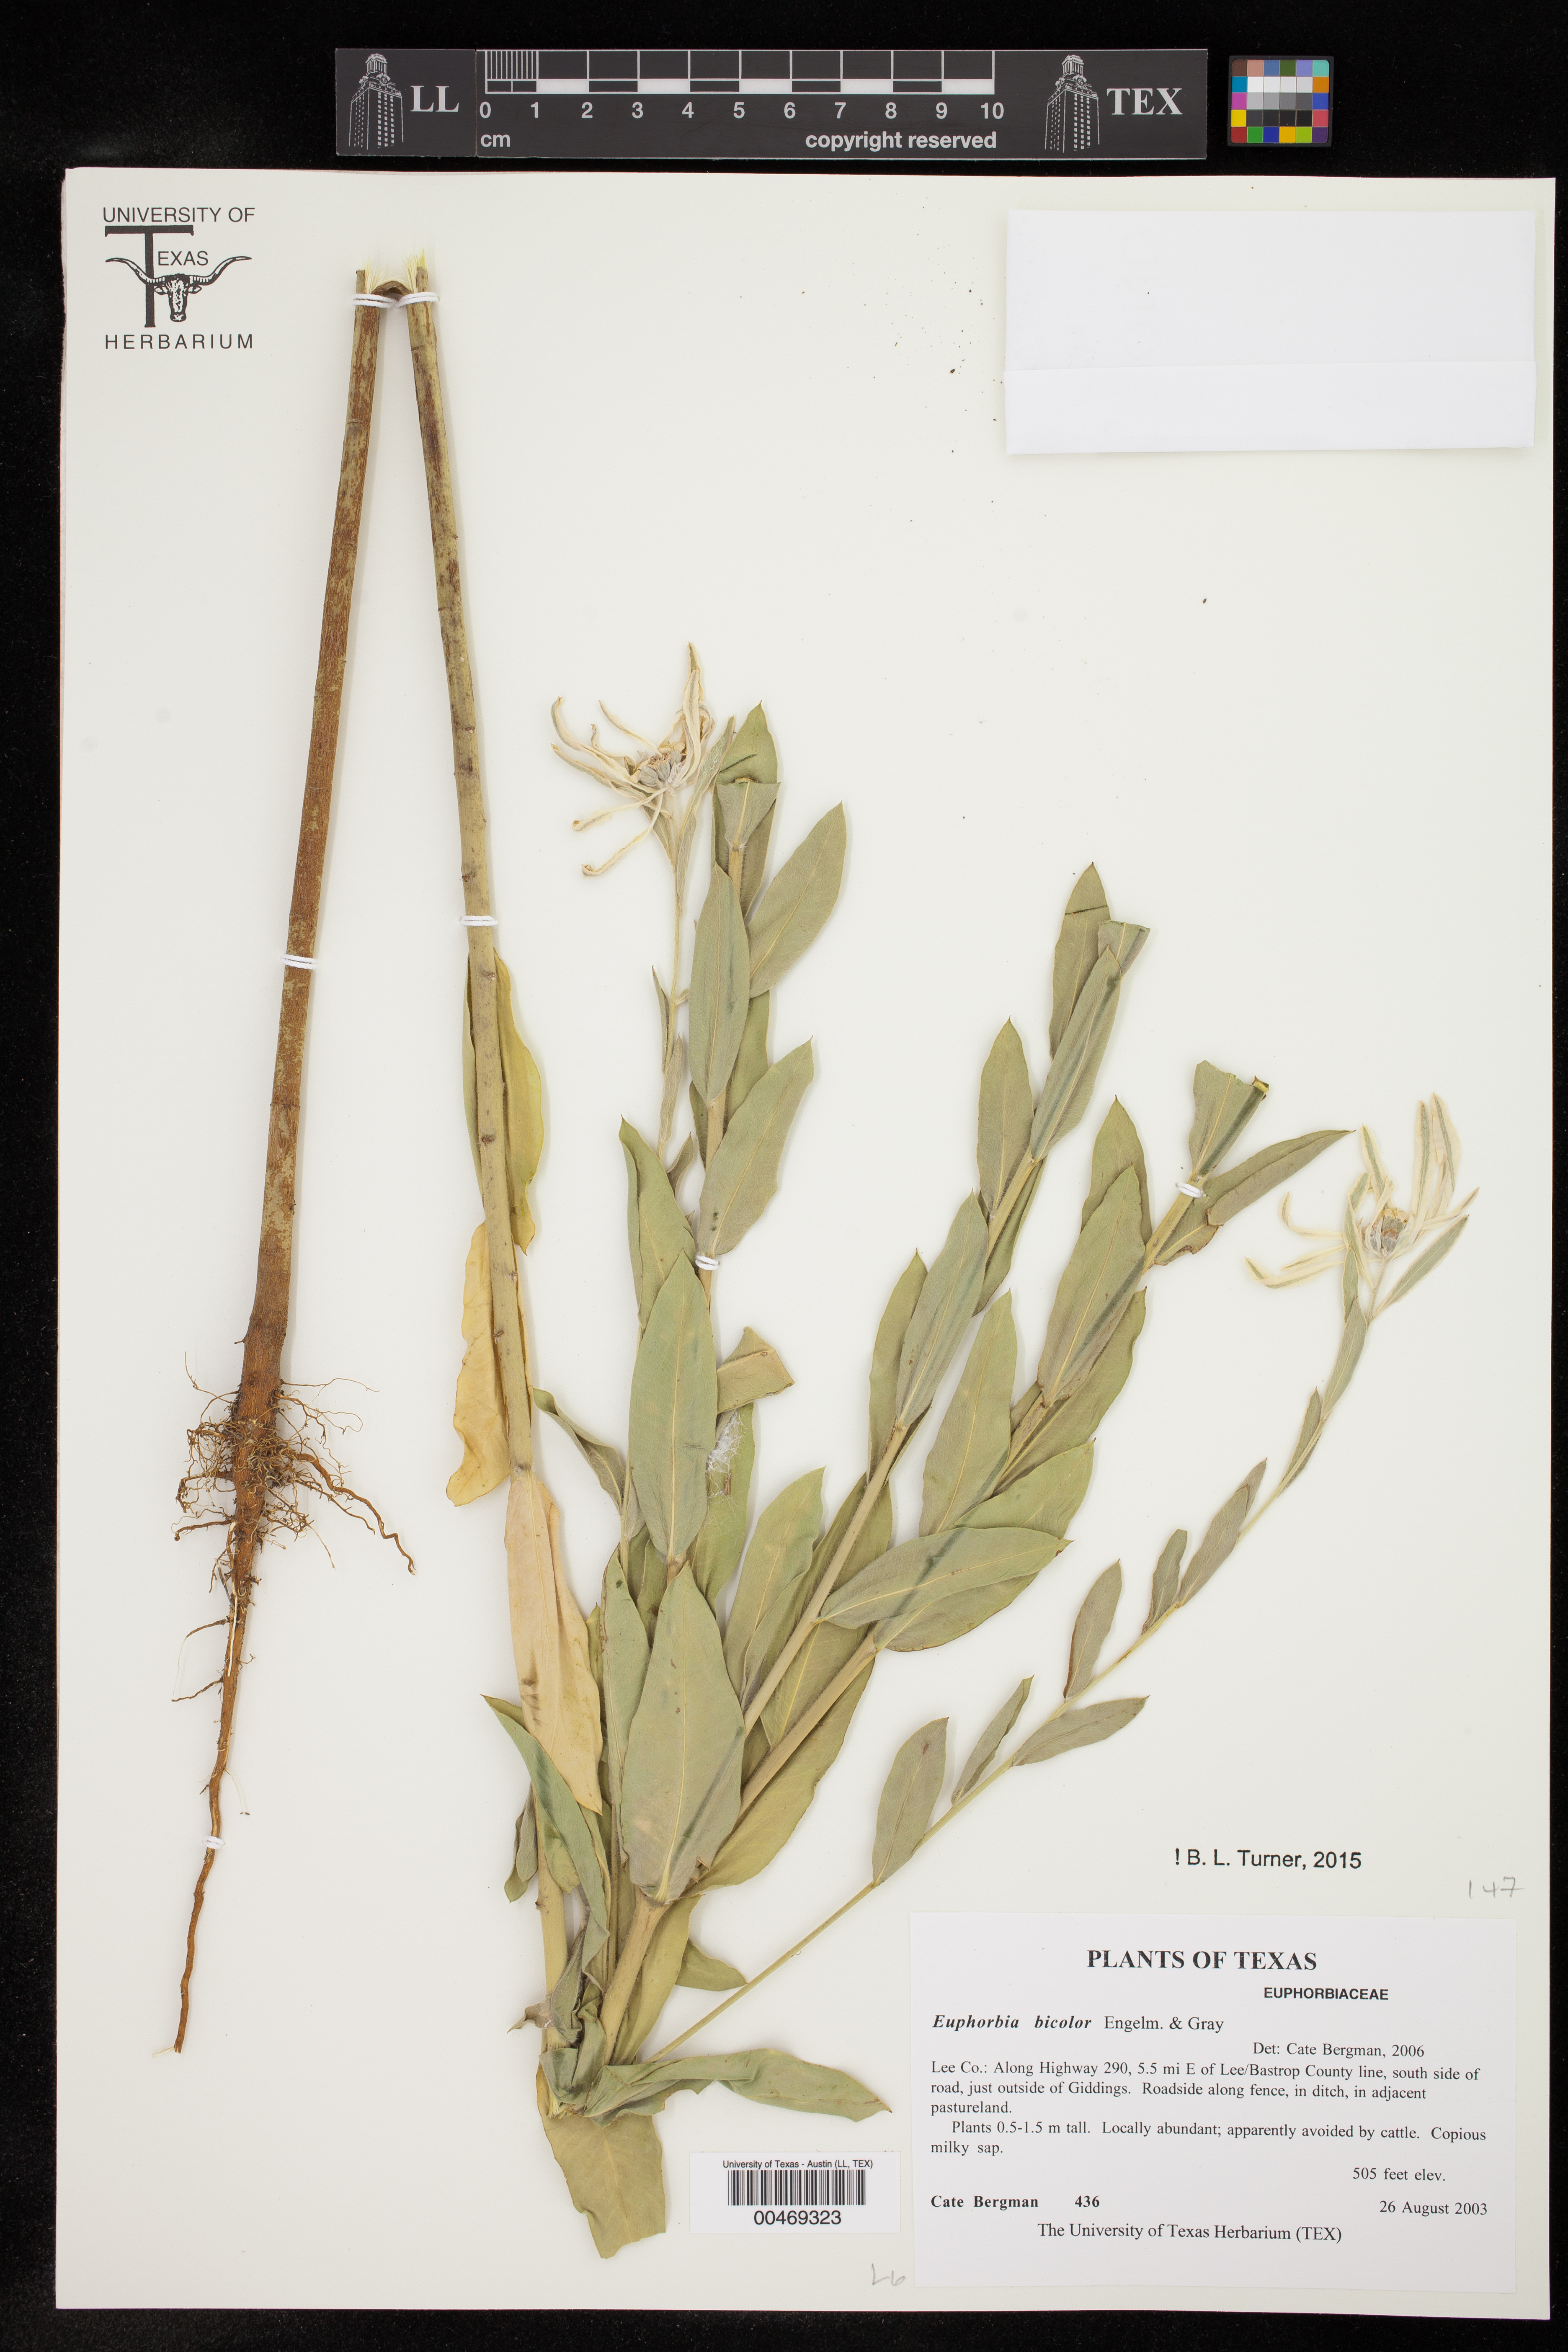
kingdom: Plantae
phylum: Tracheophyta
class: Magnoliopsida
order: Malpighiales
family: Euphorbiaceae
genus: Euphorbia
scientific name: Euphorbia bicolor
